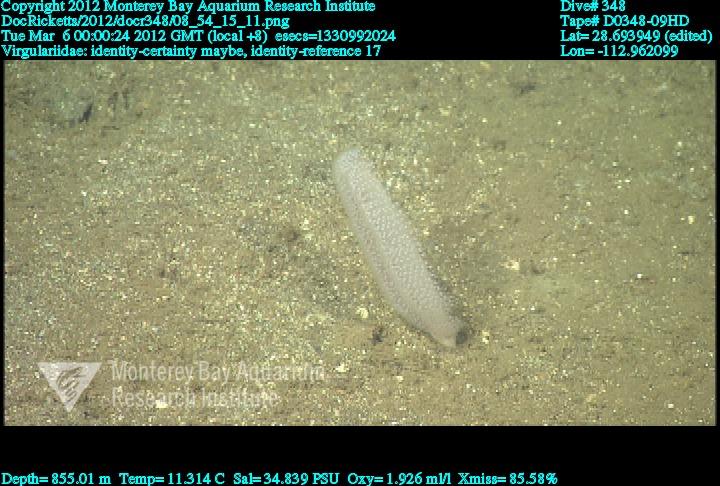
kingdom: Animalia
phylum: Cnidaria
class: Anthozoa
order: Scleralcyonacea
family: Virgulariidae
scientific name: Virgulariidae
